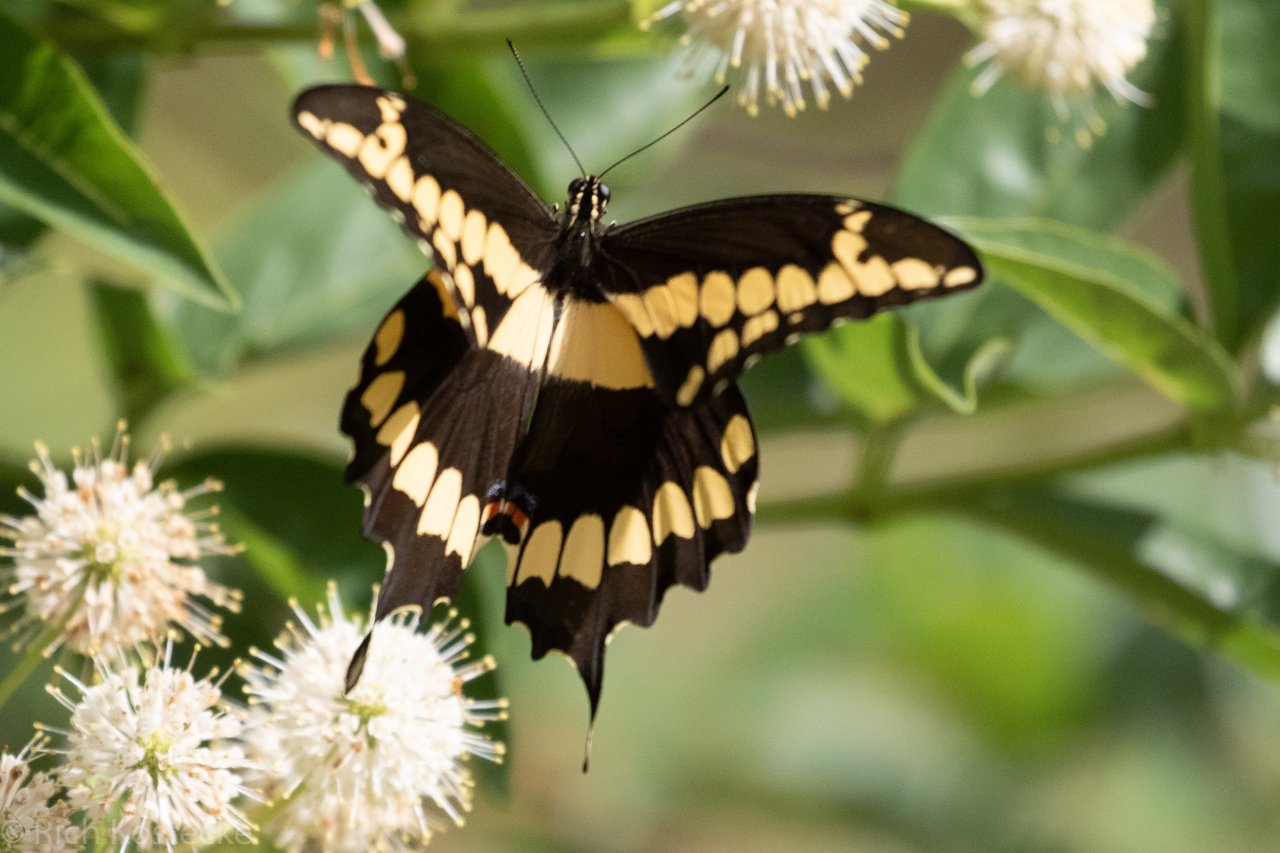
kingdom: Animalia
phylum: Arthropoda
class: Insecta
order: Lepidoptera
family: Papilionidae
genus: Papilio
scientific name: Papilio rumiko
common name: Western Giant Swallowtail
